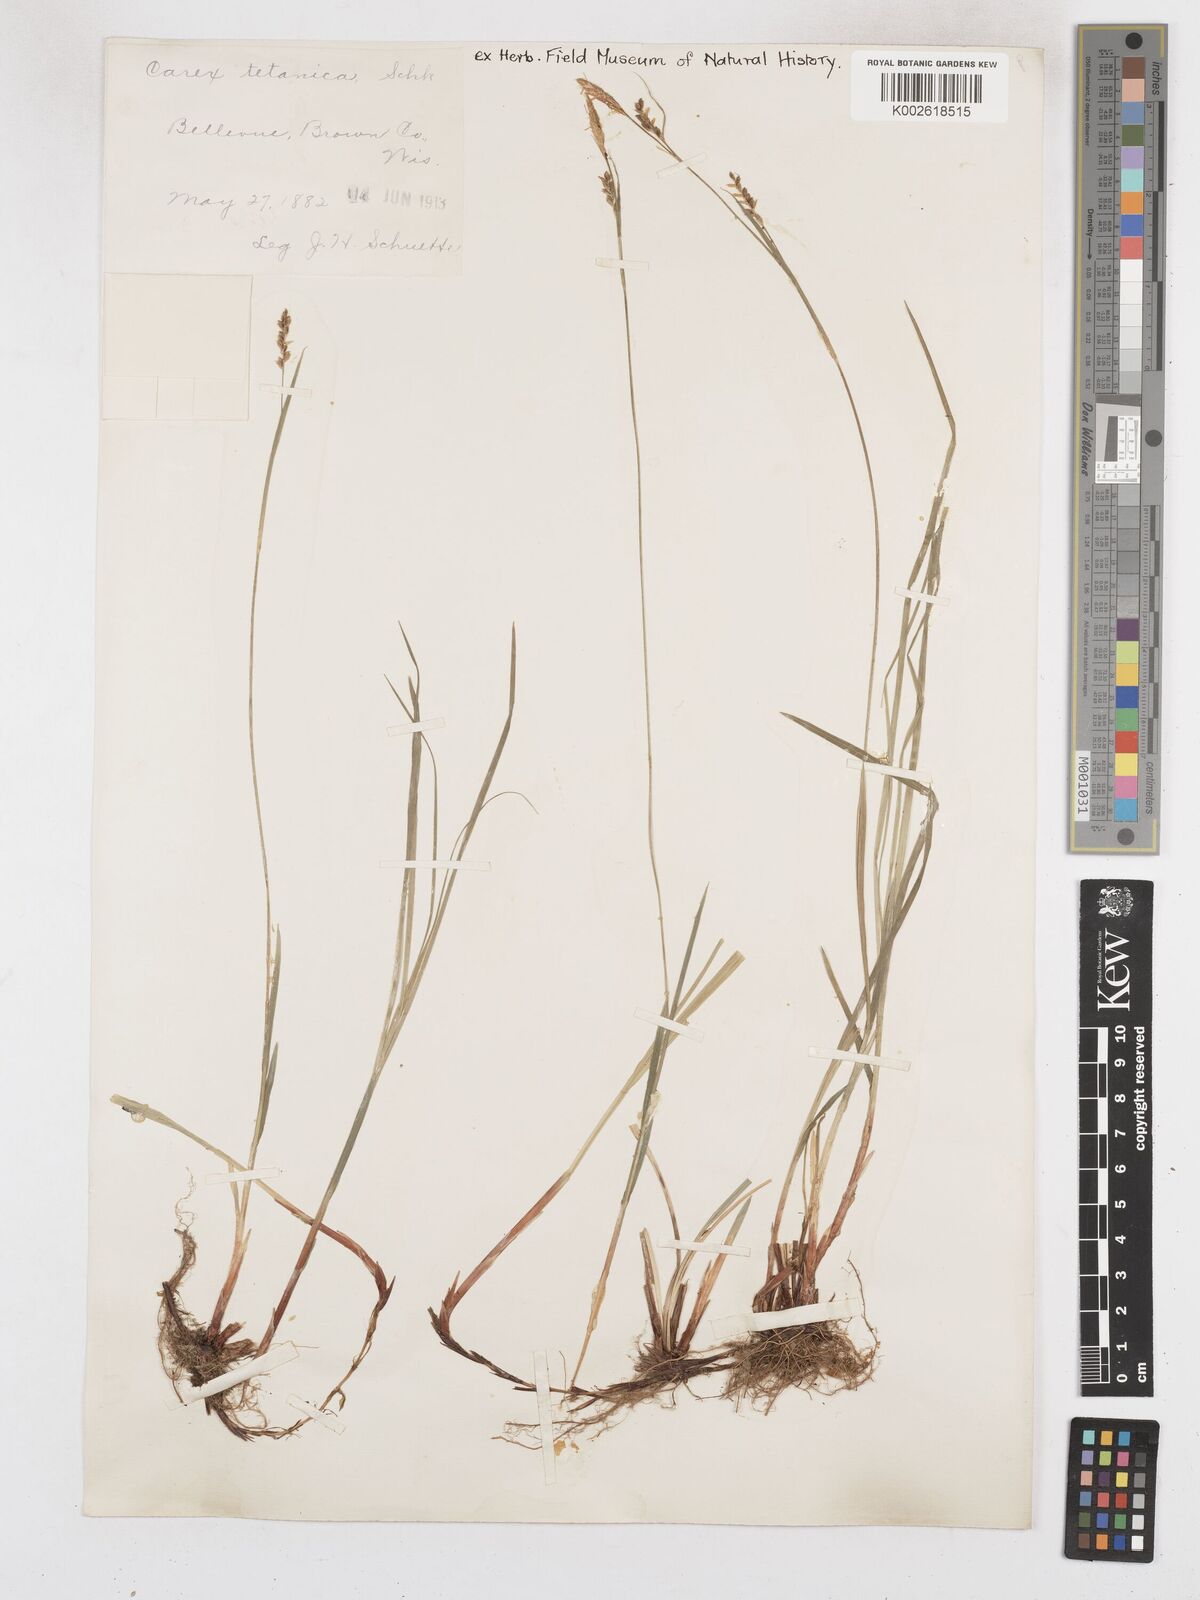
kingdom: Plantae
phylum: Tracheophyta
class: Liliopsida
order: Poales
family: Cyperaceae
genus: Carex
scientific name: Carex tetanica
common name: Rigid sedge
